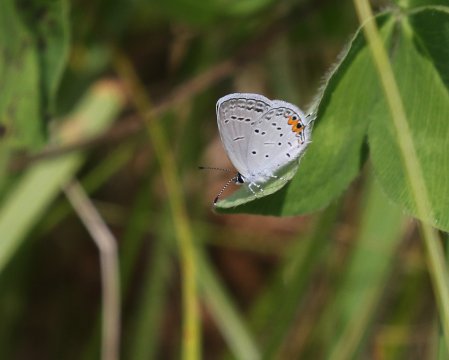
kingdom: Animalia
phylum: Arthropoda
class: Insecta
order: Lepidoptera
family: Lycaenidae
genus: Elkalyce
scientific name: Elkalyce comyntas
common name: Eastern Tailed-Blue
